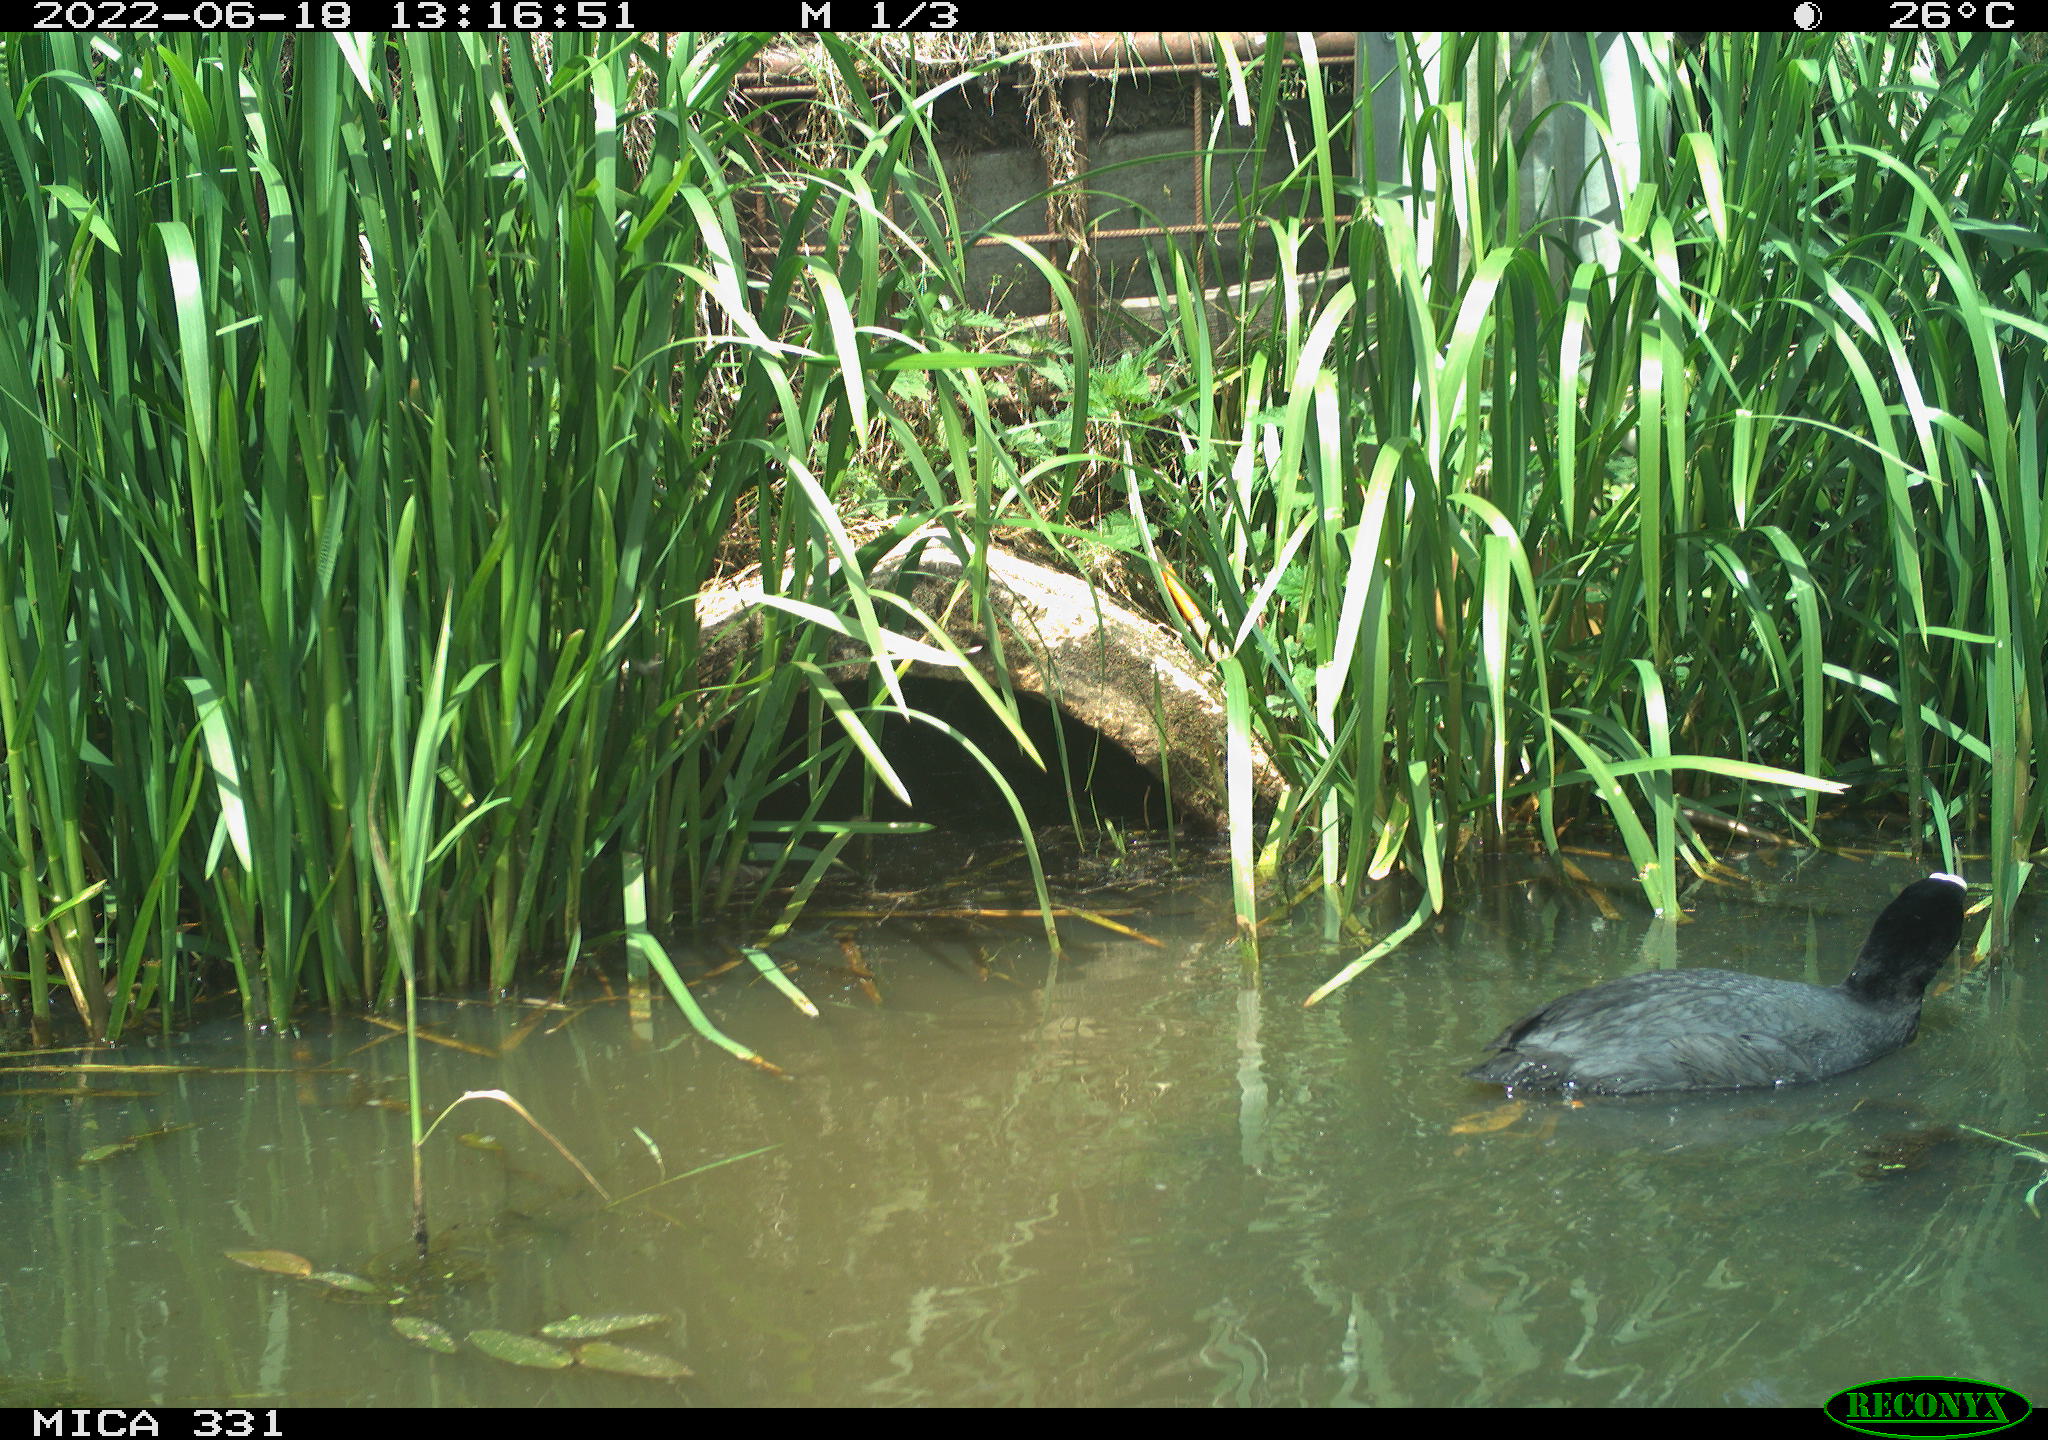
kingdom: Animalia
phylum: Chordata
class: Aves
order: Gruiformes
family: Rallidae
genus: Fulica
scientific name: Fulica atra
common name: Eurasian coot
